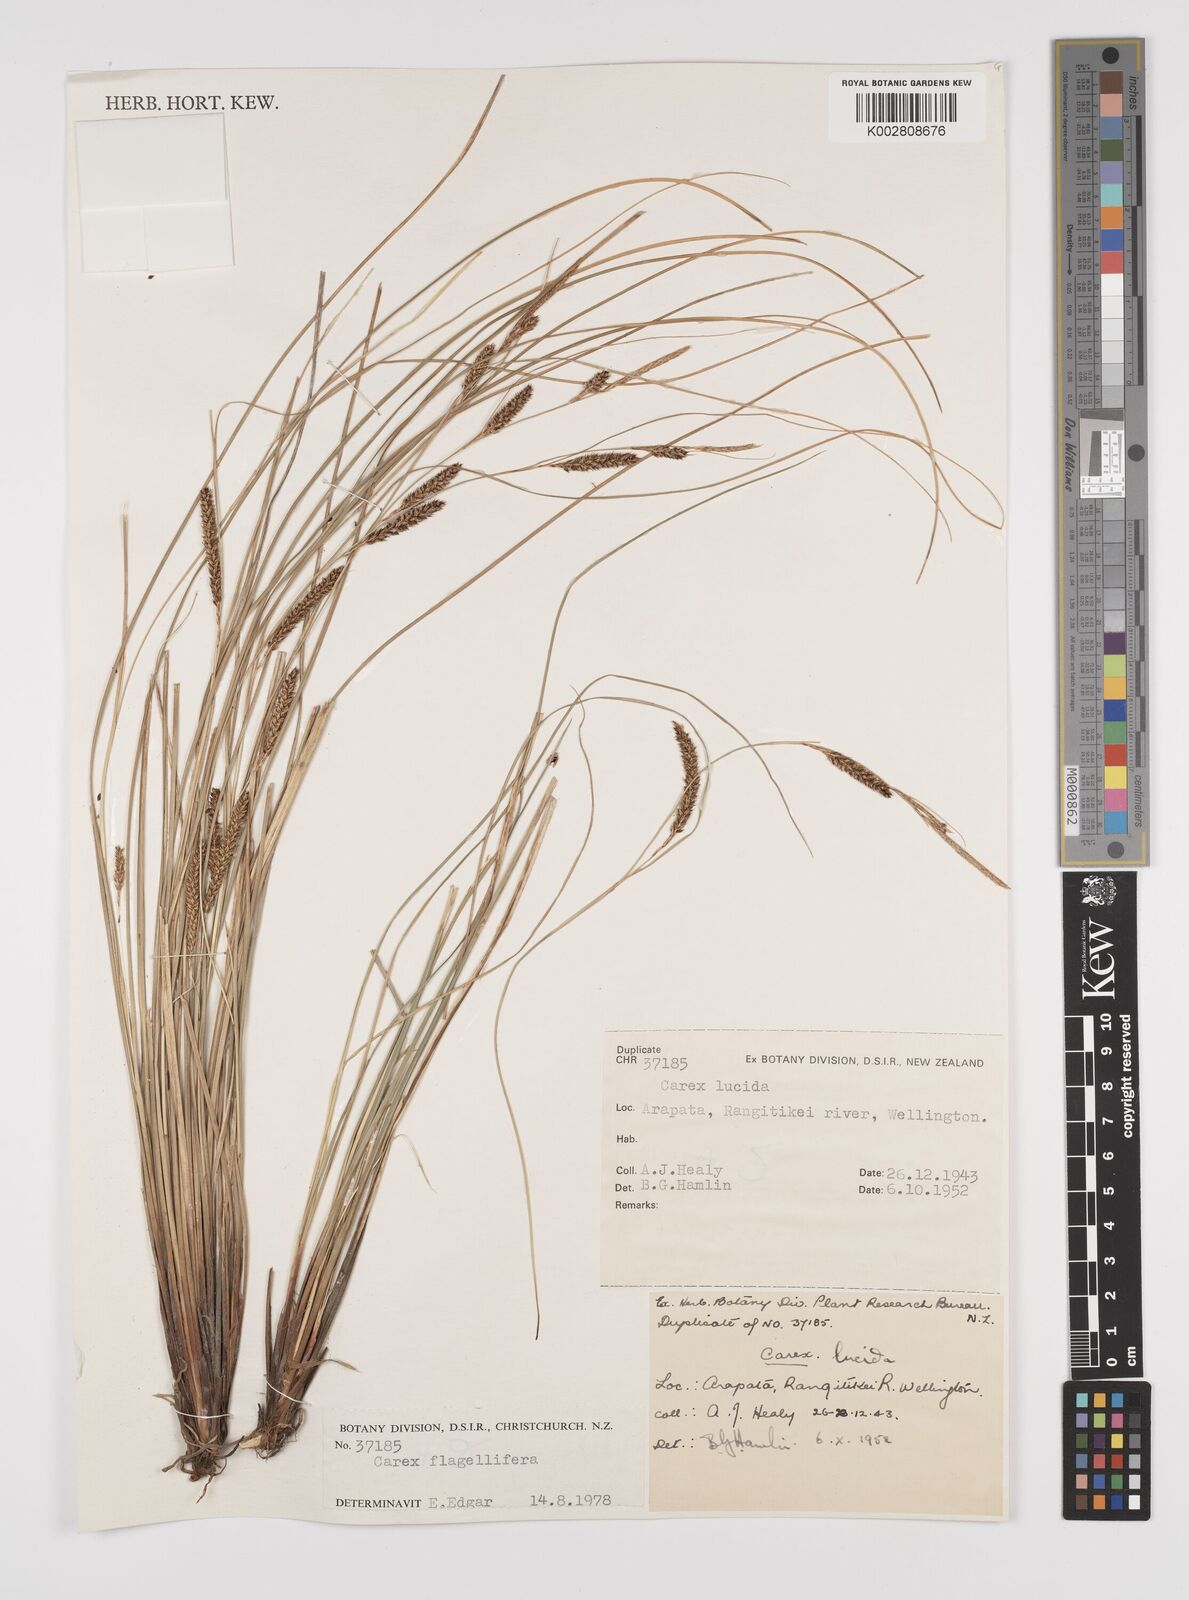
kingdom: Plantae
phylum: Tracheophyta
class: Liliopsida
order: Poales
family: Cyperaceae
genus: Carex
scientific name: Carex flagellifera
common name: Glen murray tussock
